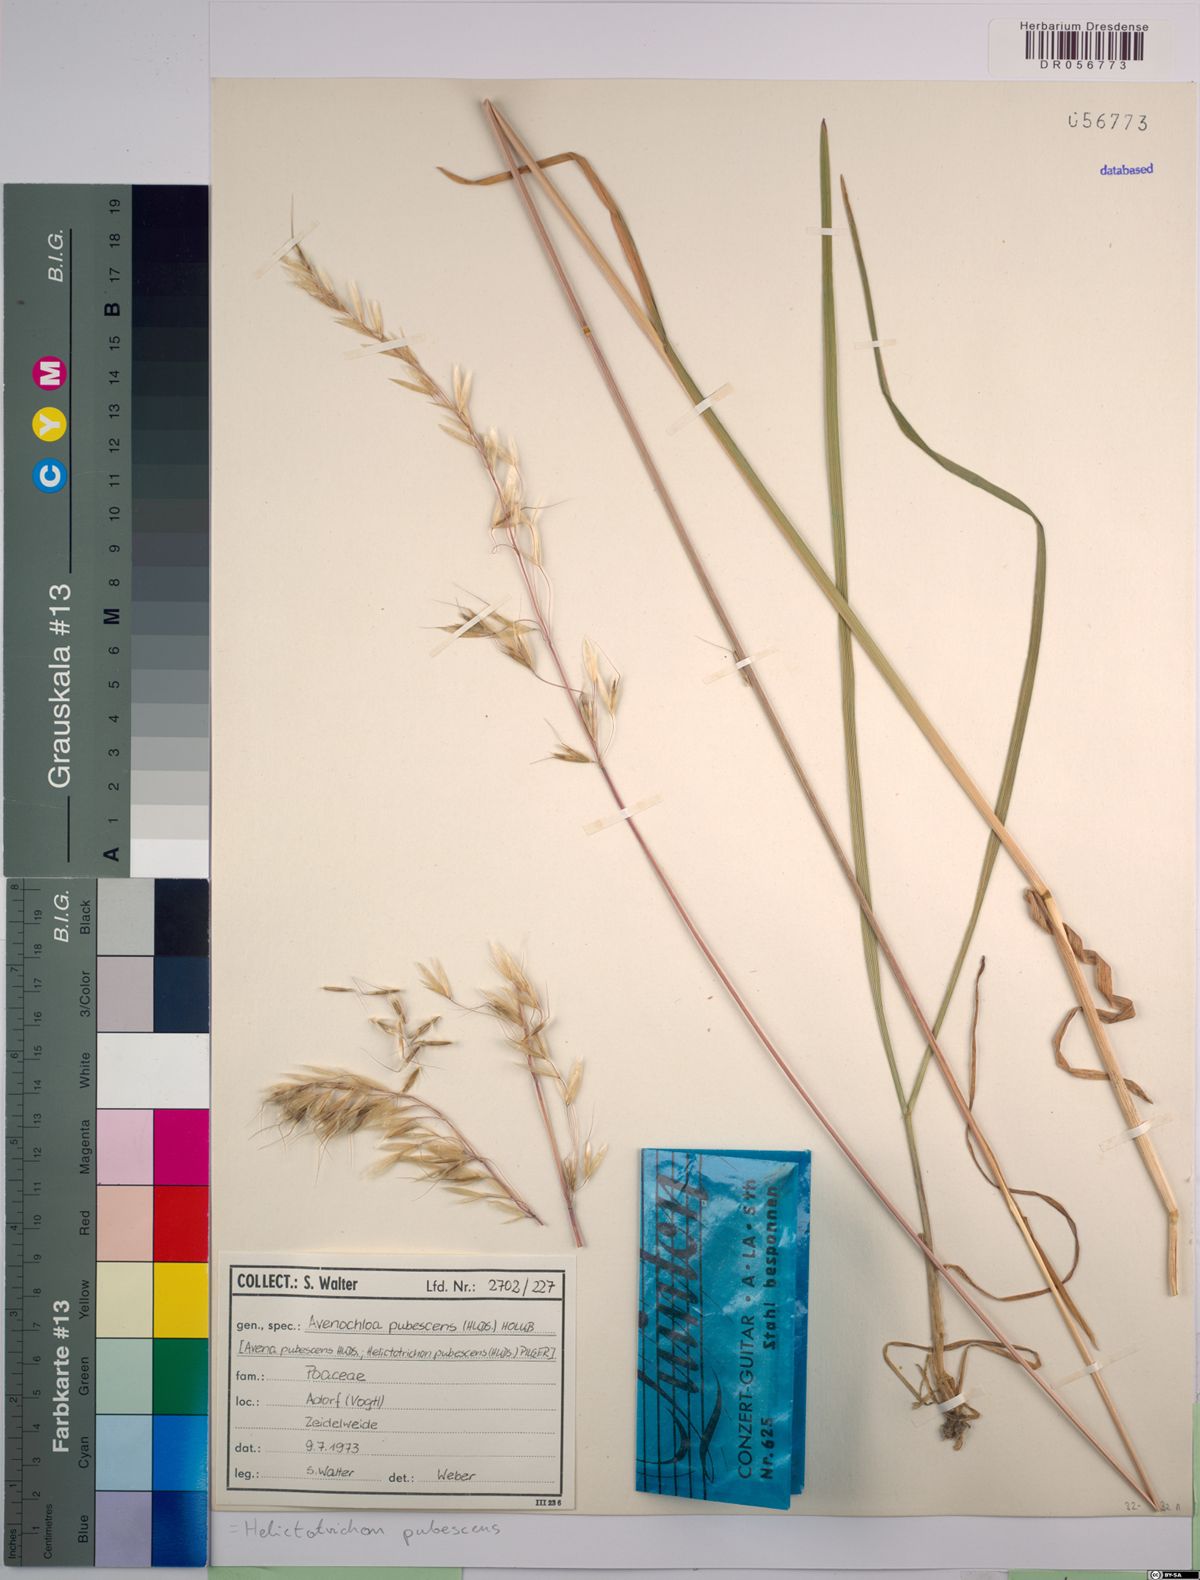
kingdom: Plantae
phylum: Tracheophyta
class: Liliopsida
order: Poales
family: Poaceae
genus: Avenula
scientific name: Avenula pubescens
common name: Downy alpine oatgrass
